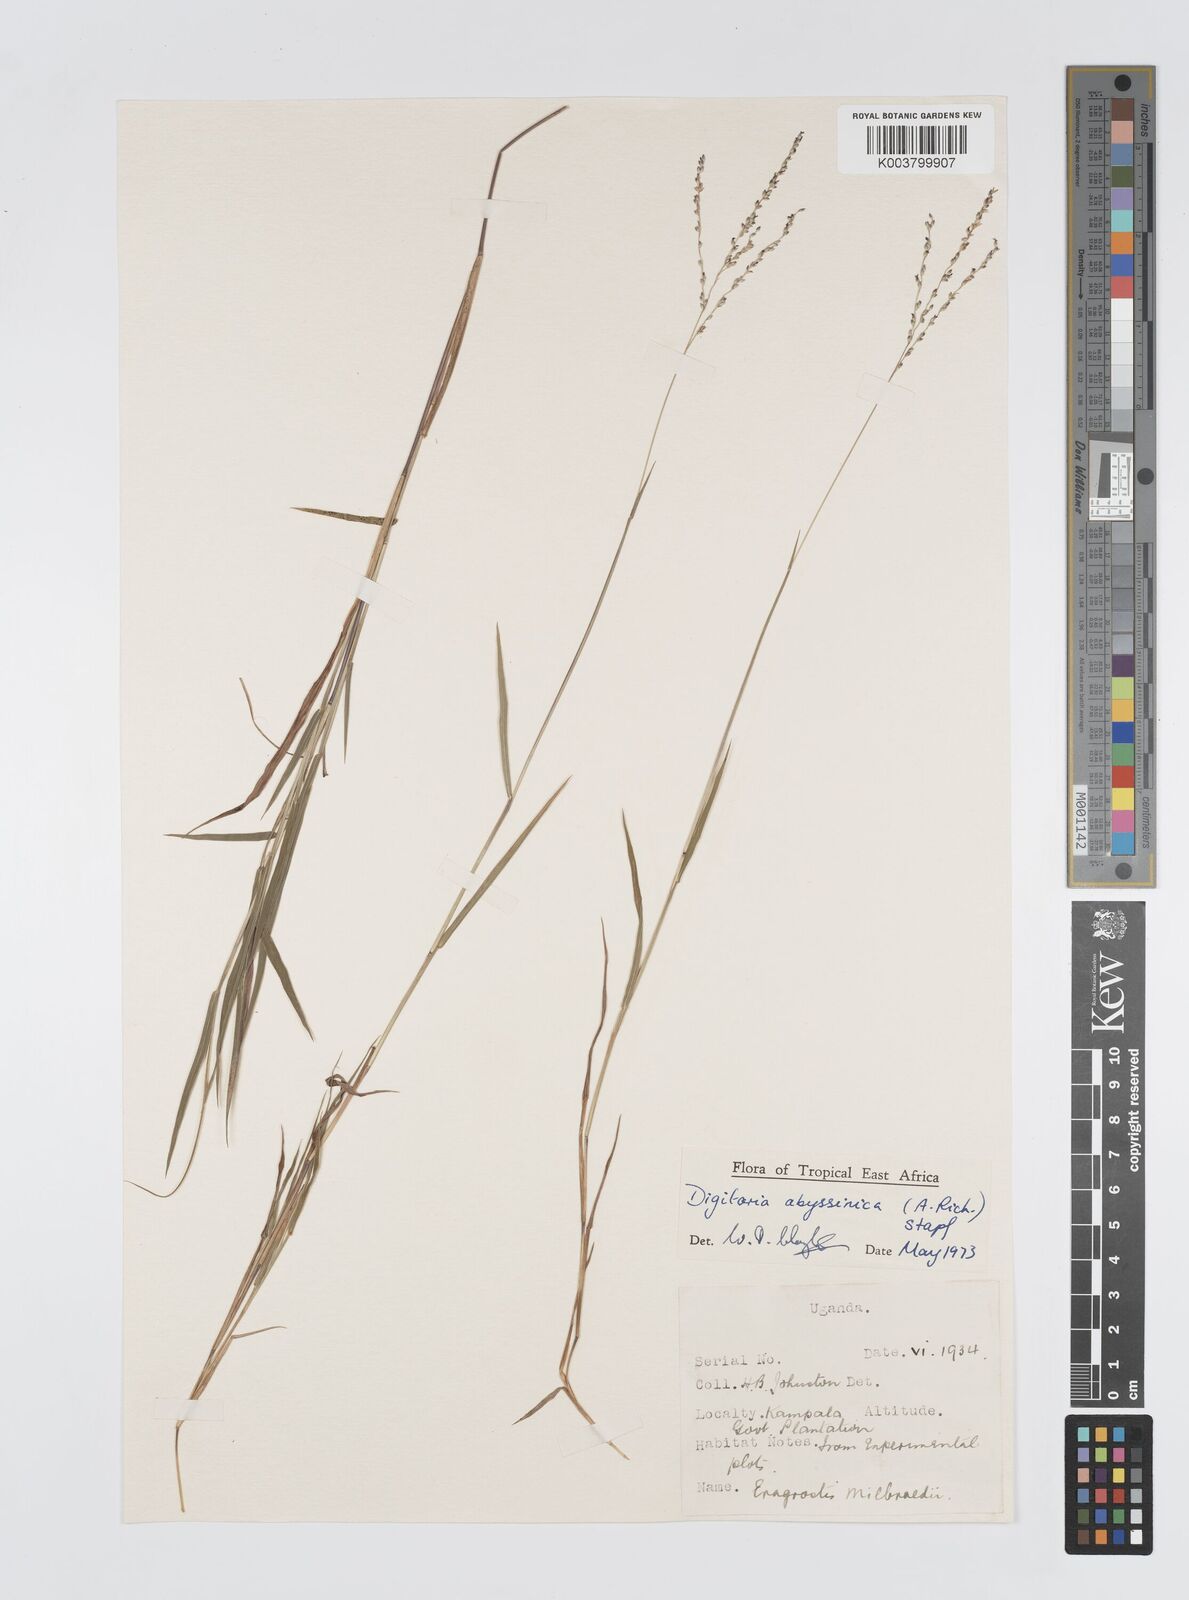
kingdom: Plantae
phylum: Tracheophyta
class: Liliopsida
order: Poales
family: Poaceae
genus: Digitaria
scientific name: Digitaria abyssinica
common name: African couchgrass
